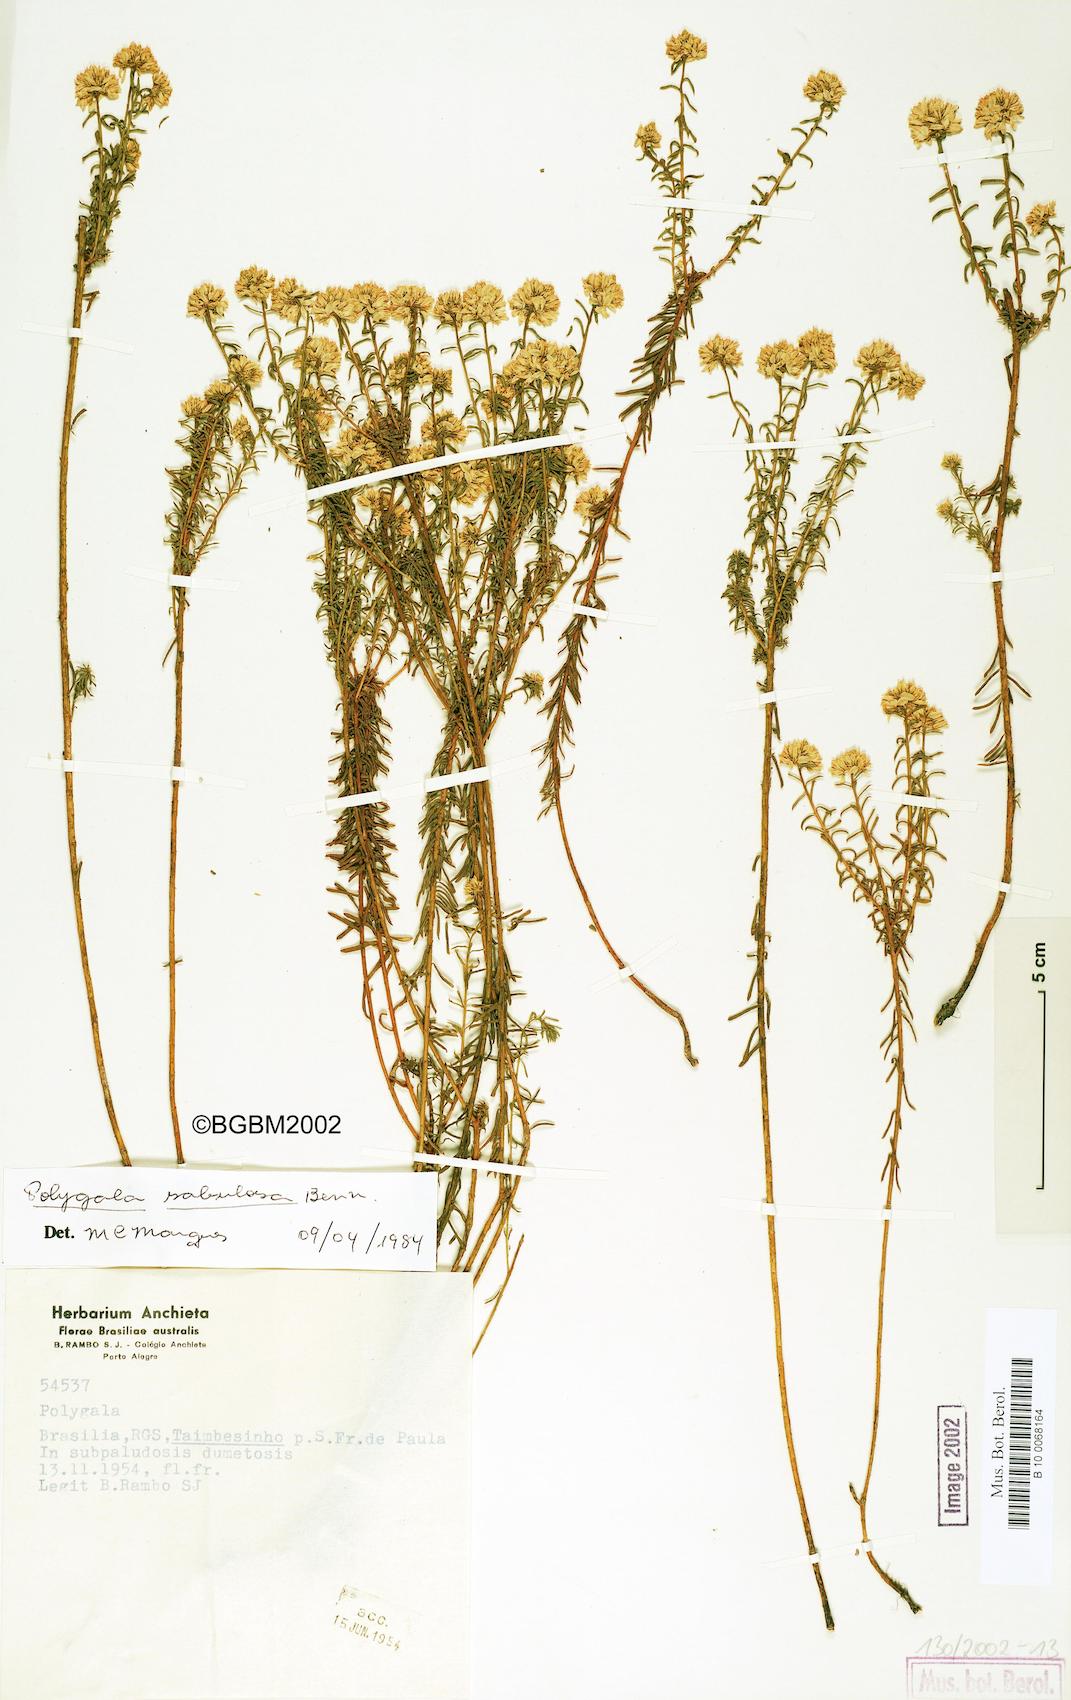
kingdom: Plantae
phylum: Tracheophyta
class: Magnoliopsida
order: Fabales
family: Polygalaceae
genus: Polygala
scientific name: Polygala sellowiana
